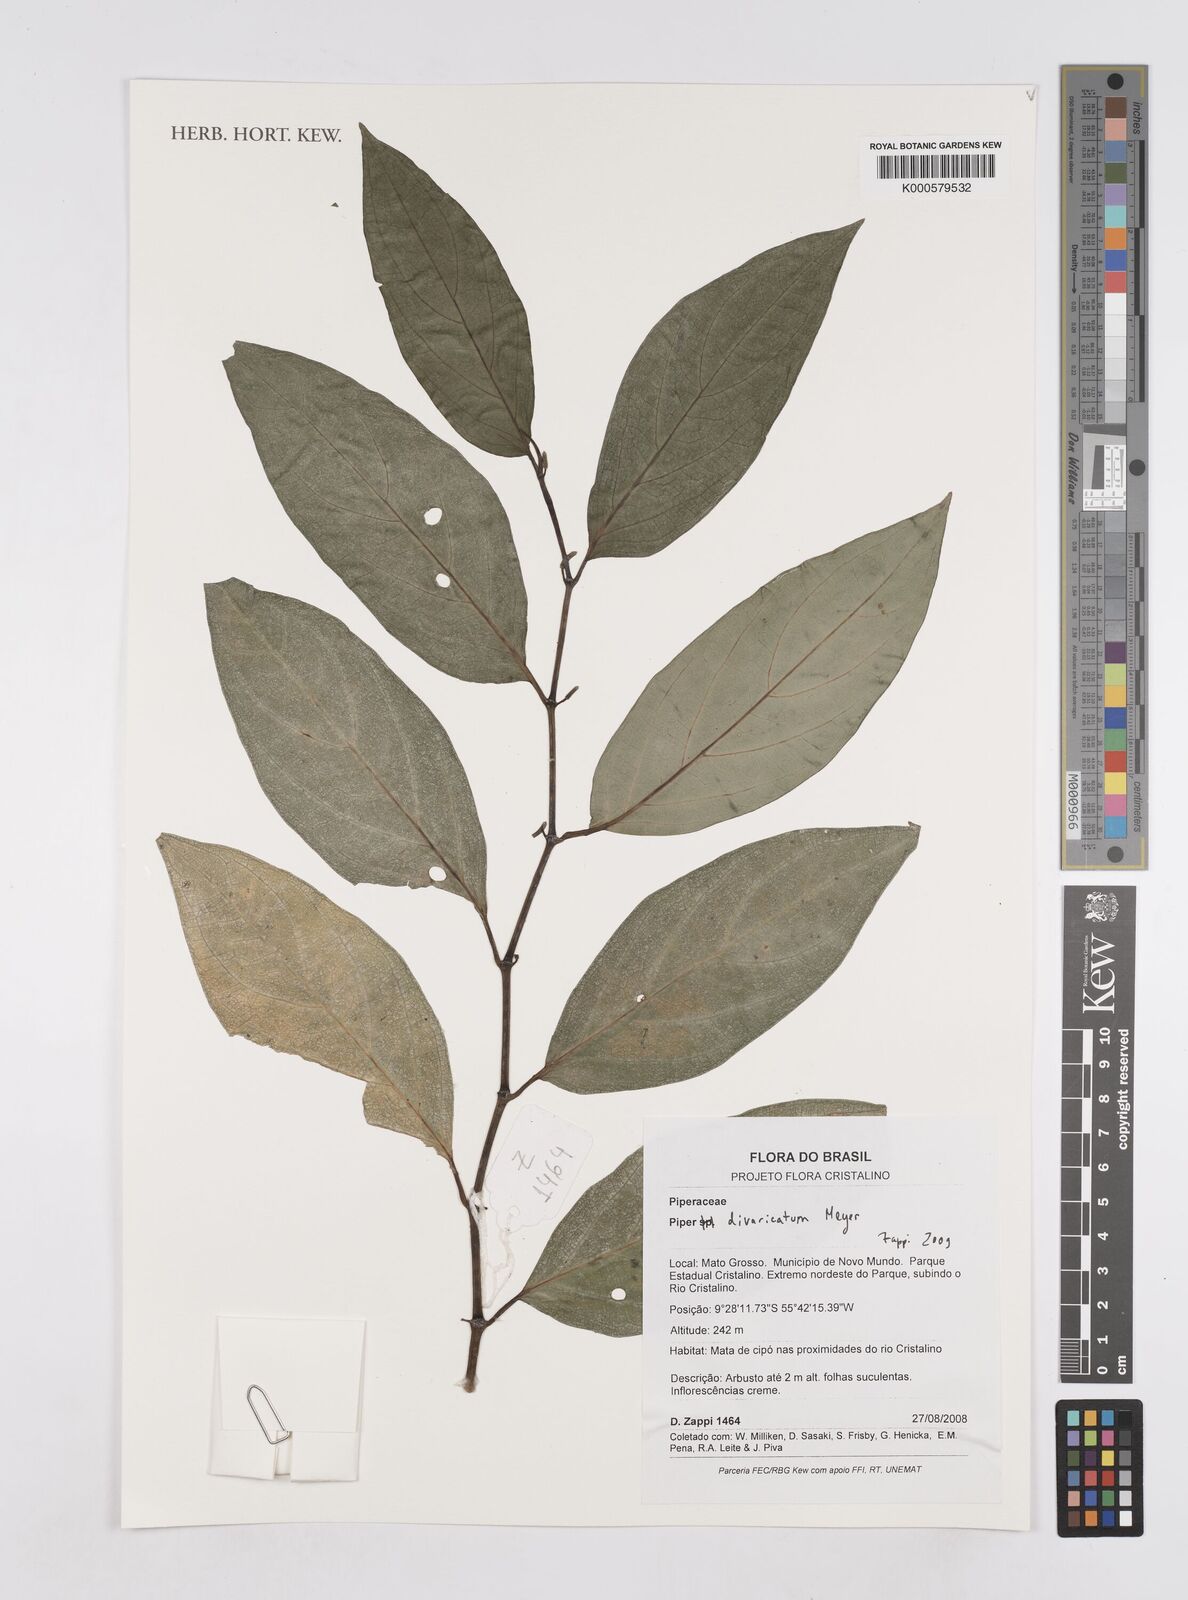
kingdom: Plantae
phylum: Tracheophyta
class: Magnoliopsida
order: Piperales
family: Piperaceae
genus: Piper
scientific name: Piper divaricatum
